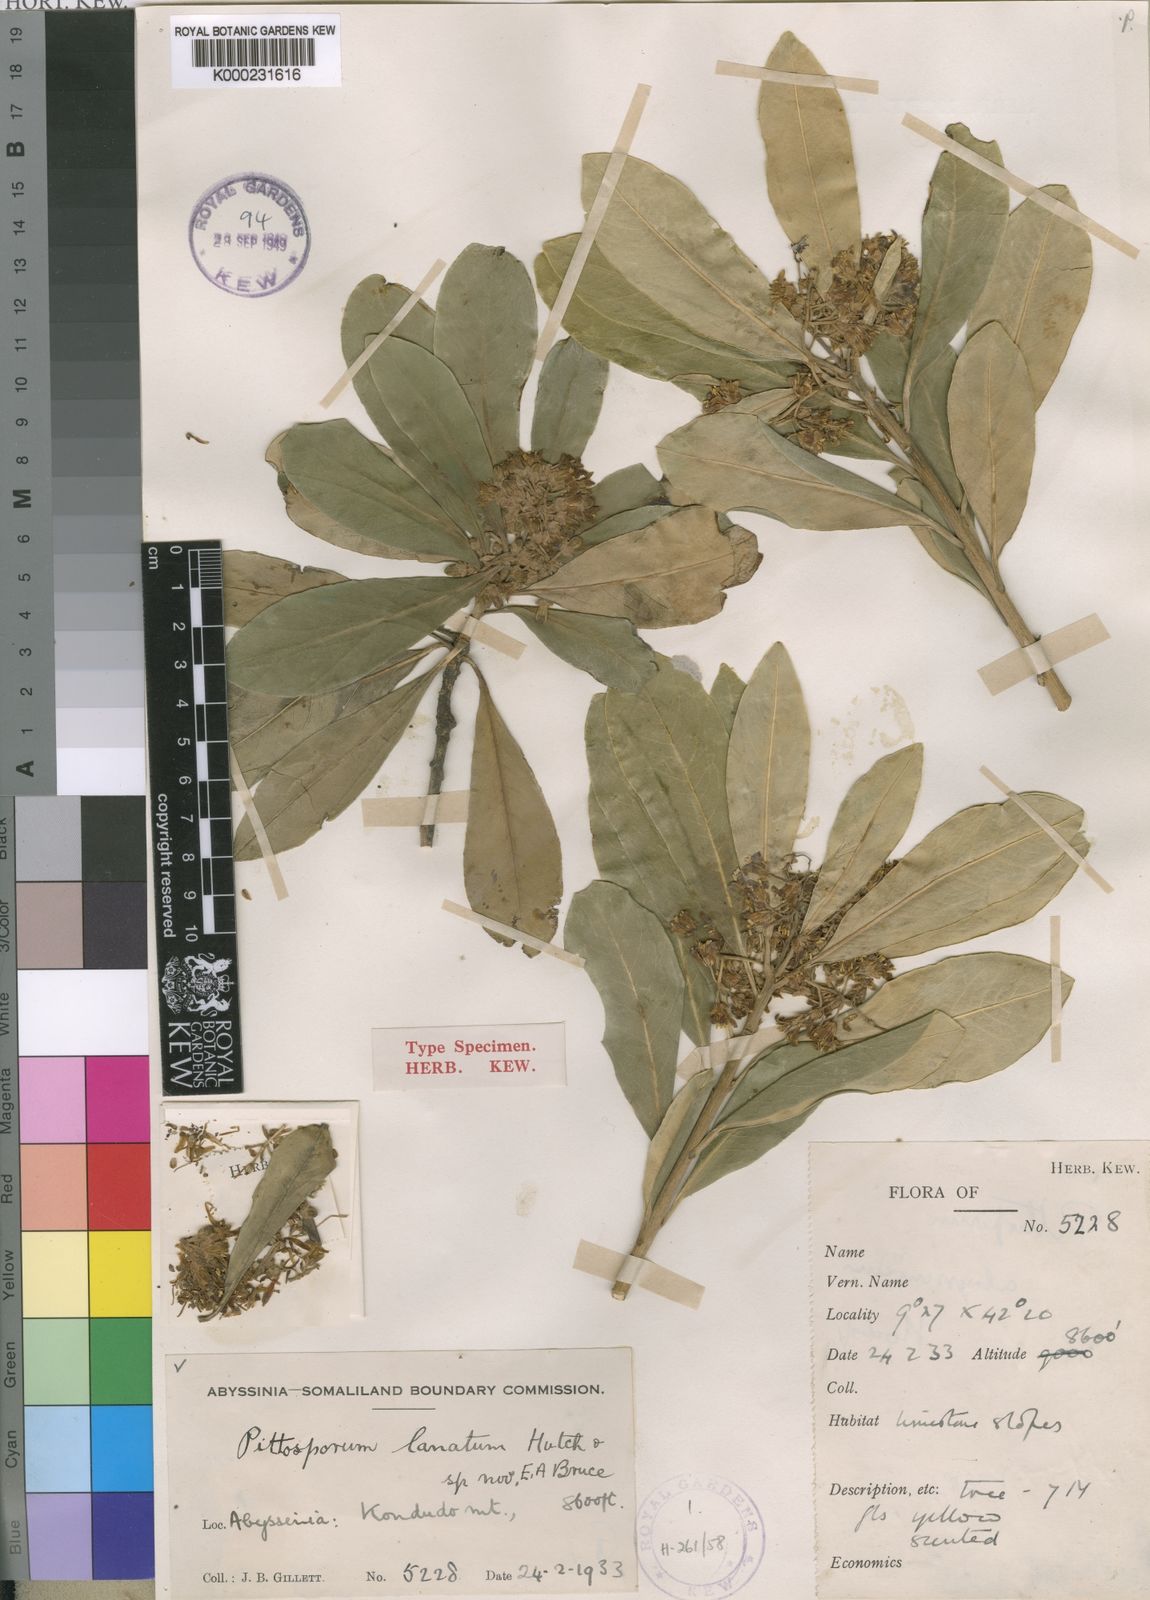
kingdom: Plantae
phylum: Tracheophyta
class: Magnoliopsida
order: Apiales
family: Pittosporaceae
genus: Pittosporum
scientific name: Pittosporum abyssinicum
